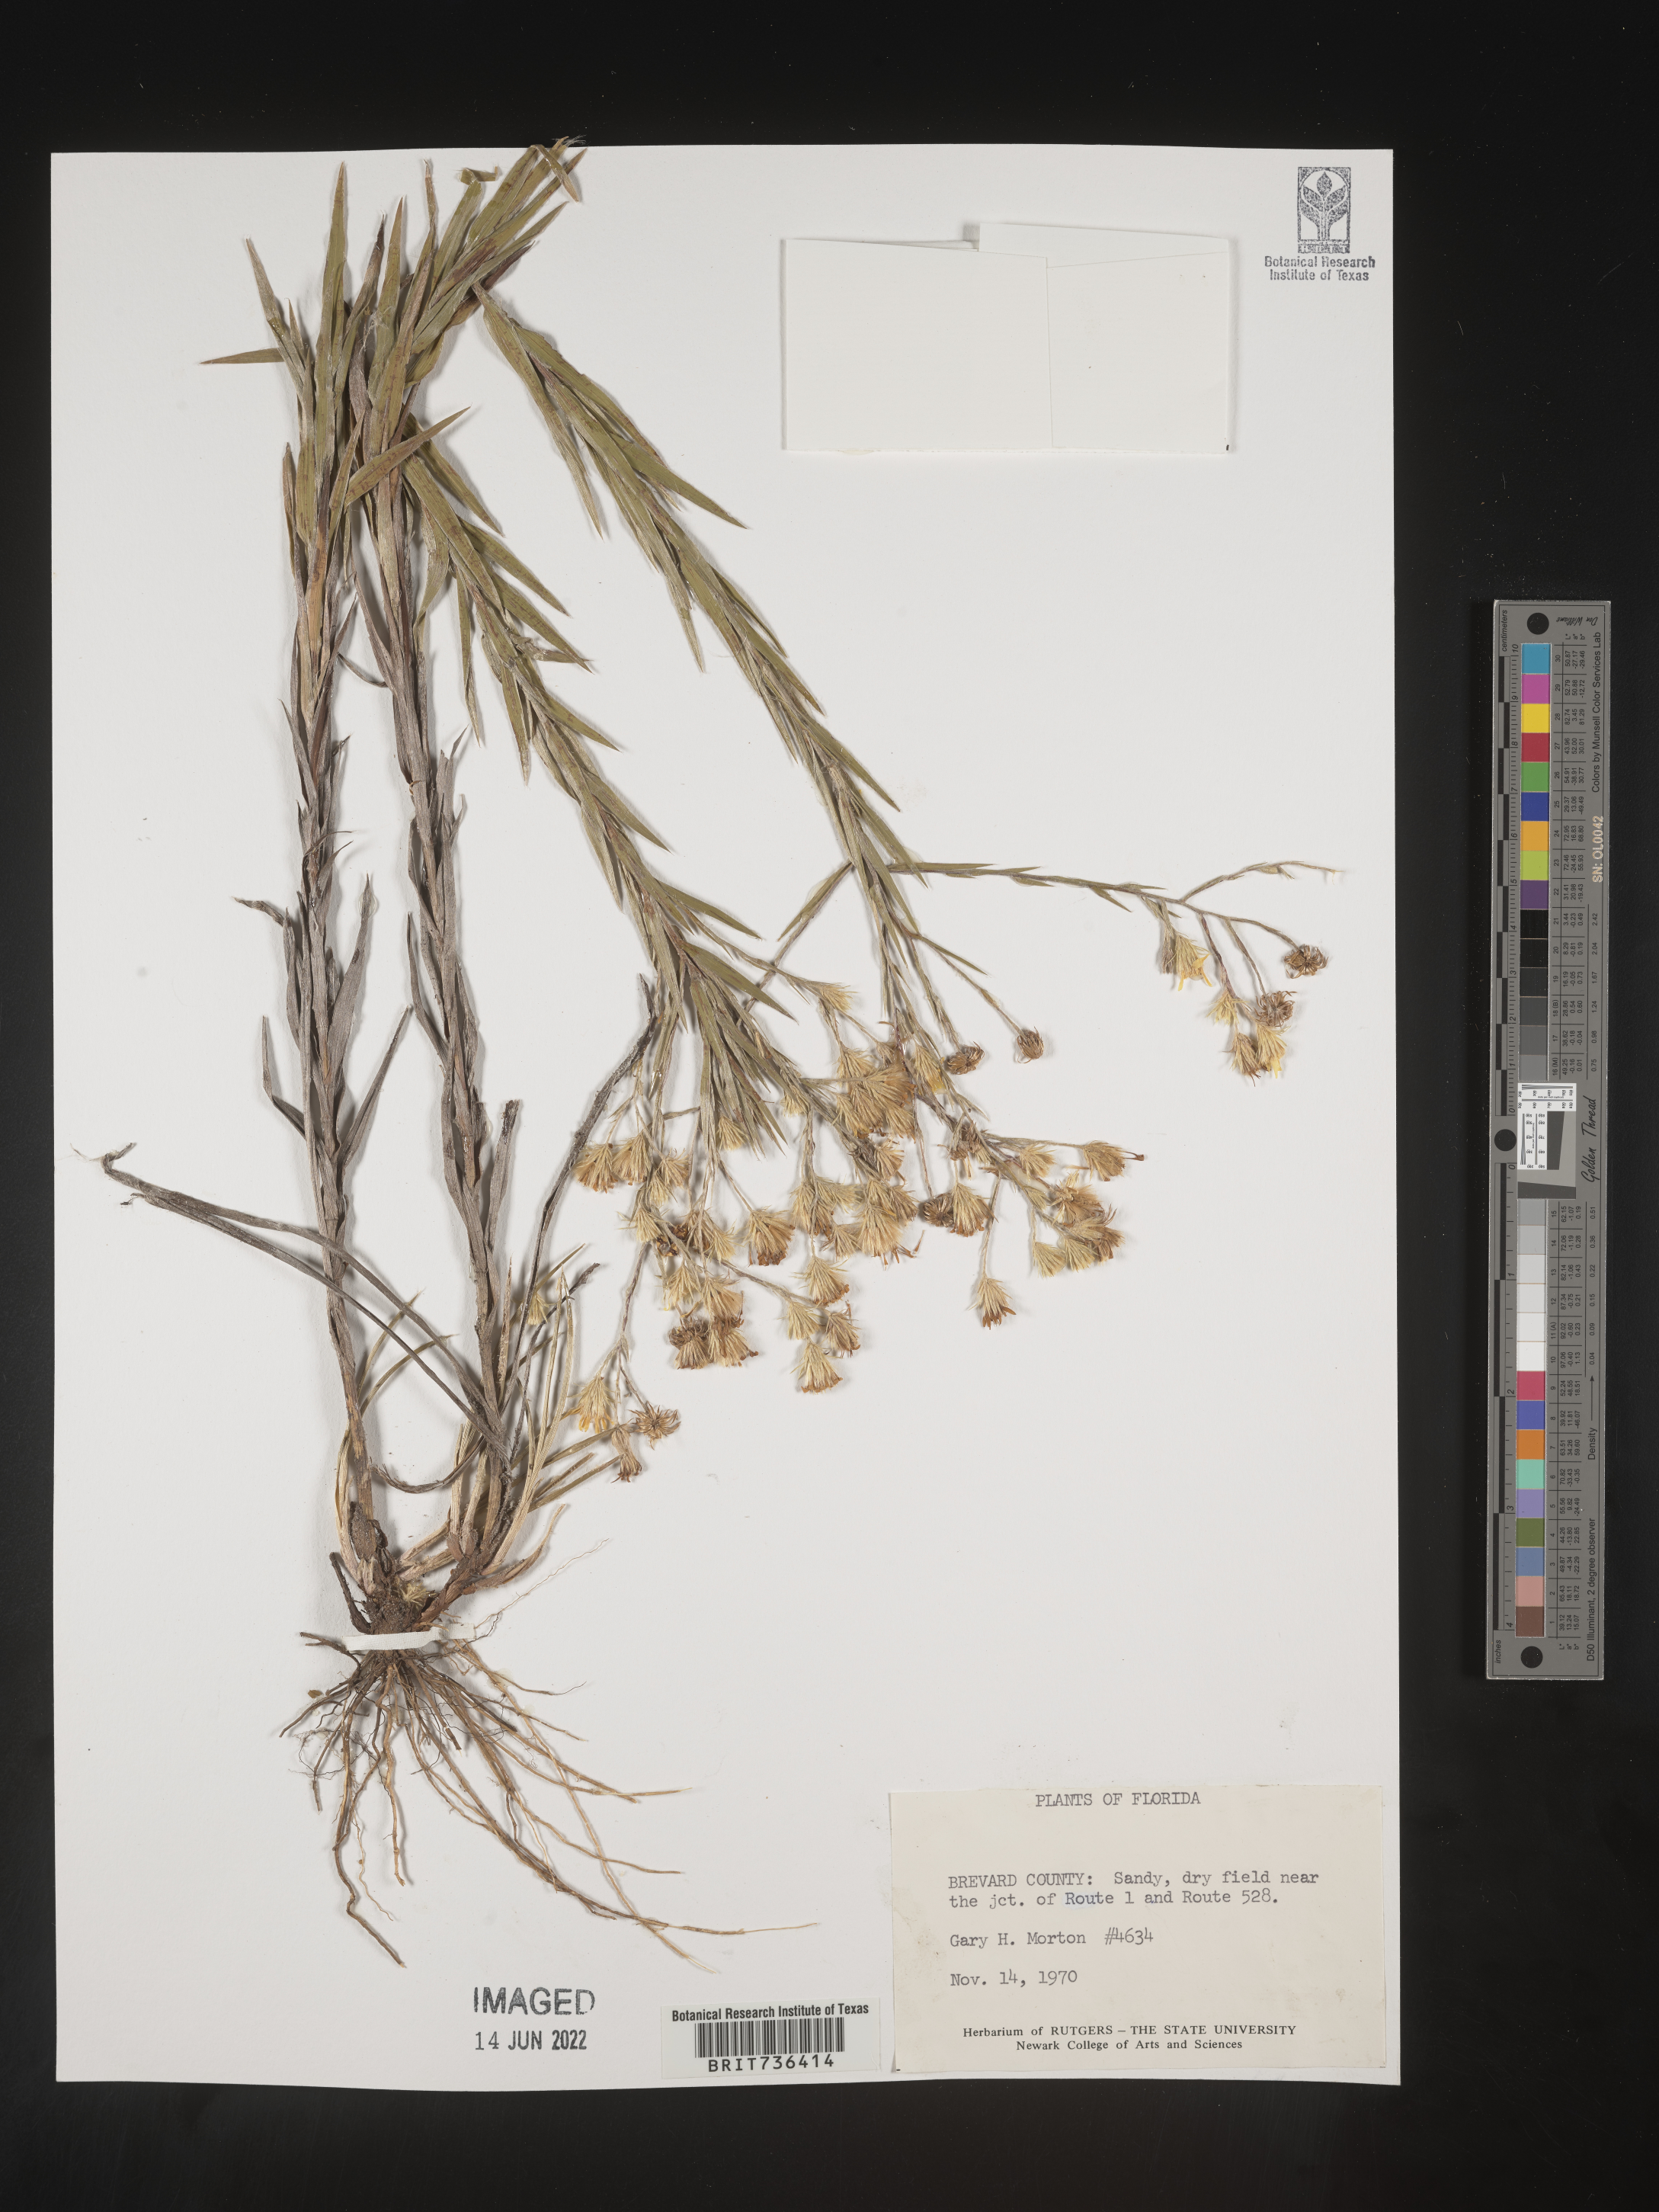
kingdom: Plantae
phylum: Tracheophyta
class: Magnoliopsida
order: Asterales
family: Asteraceae
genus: Pityopsis
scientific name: Pityopsis tracyi
